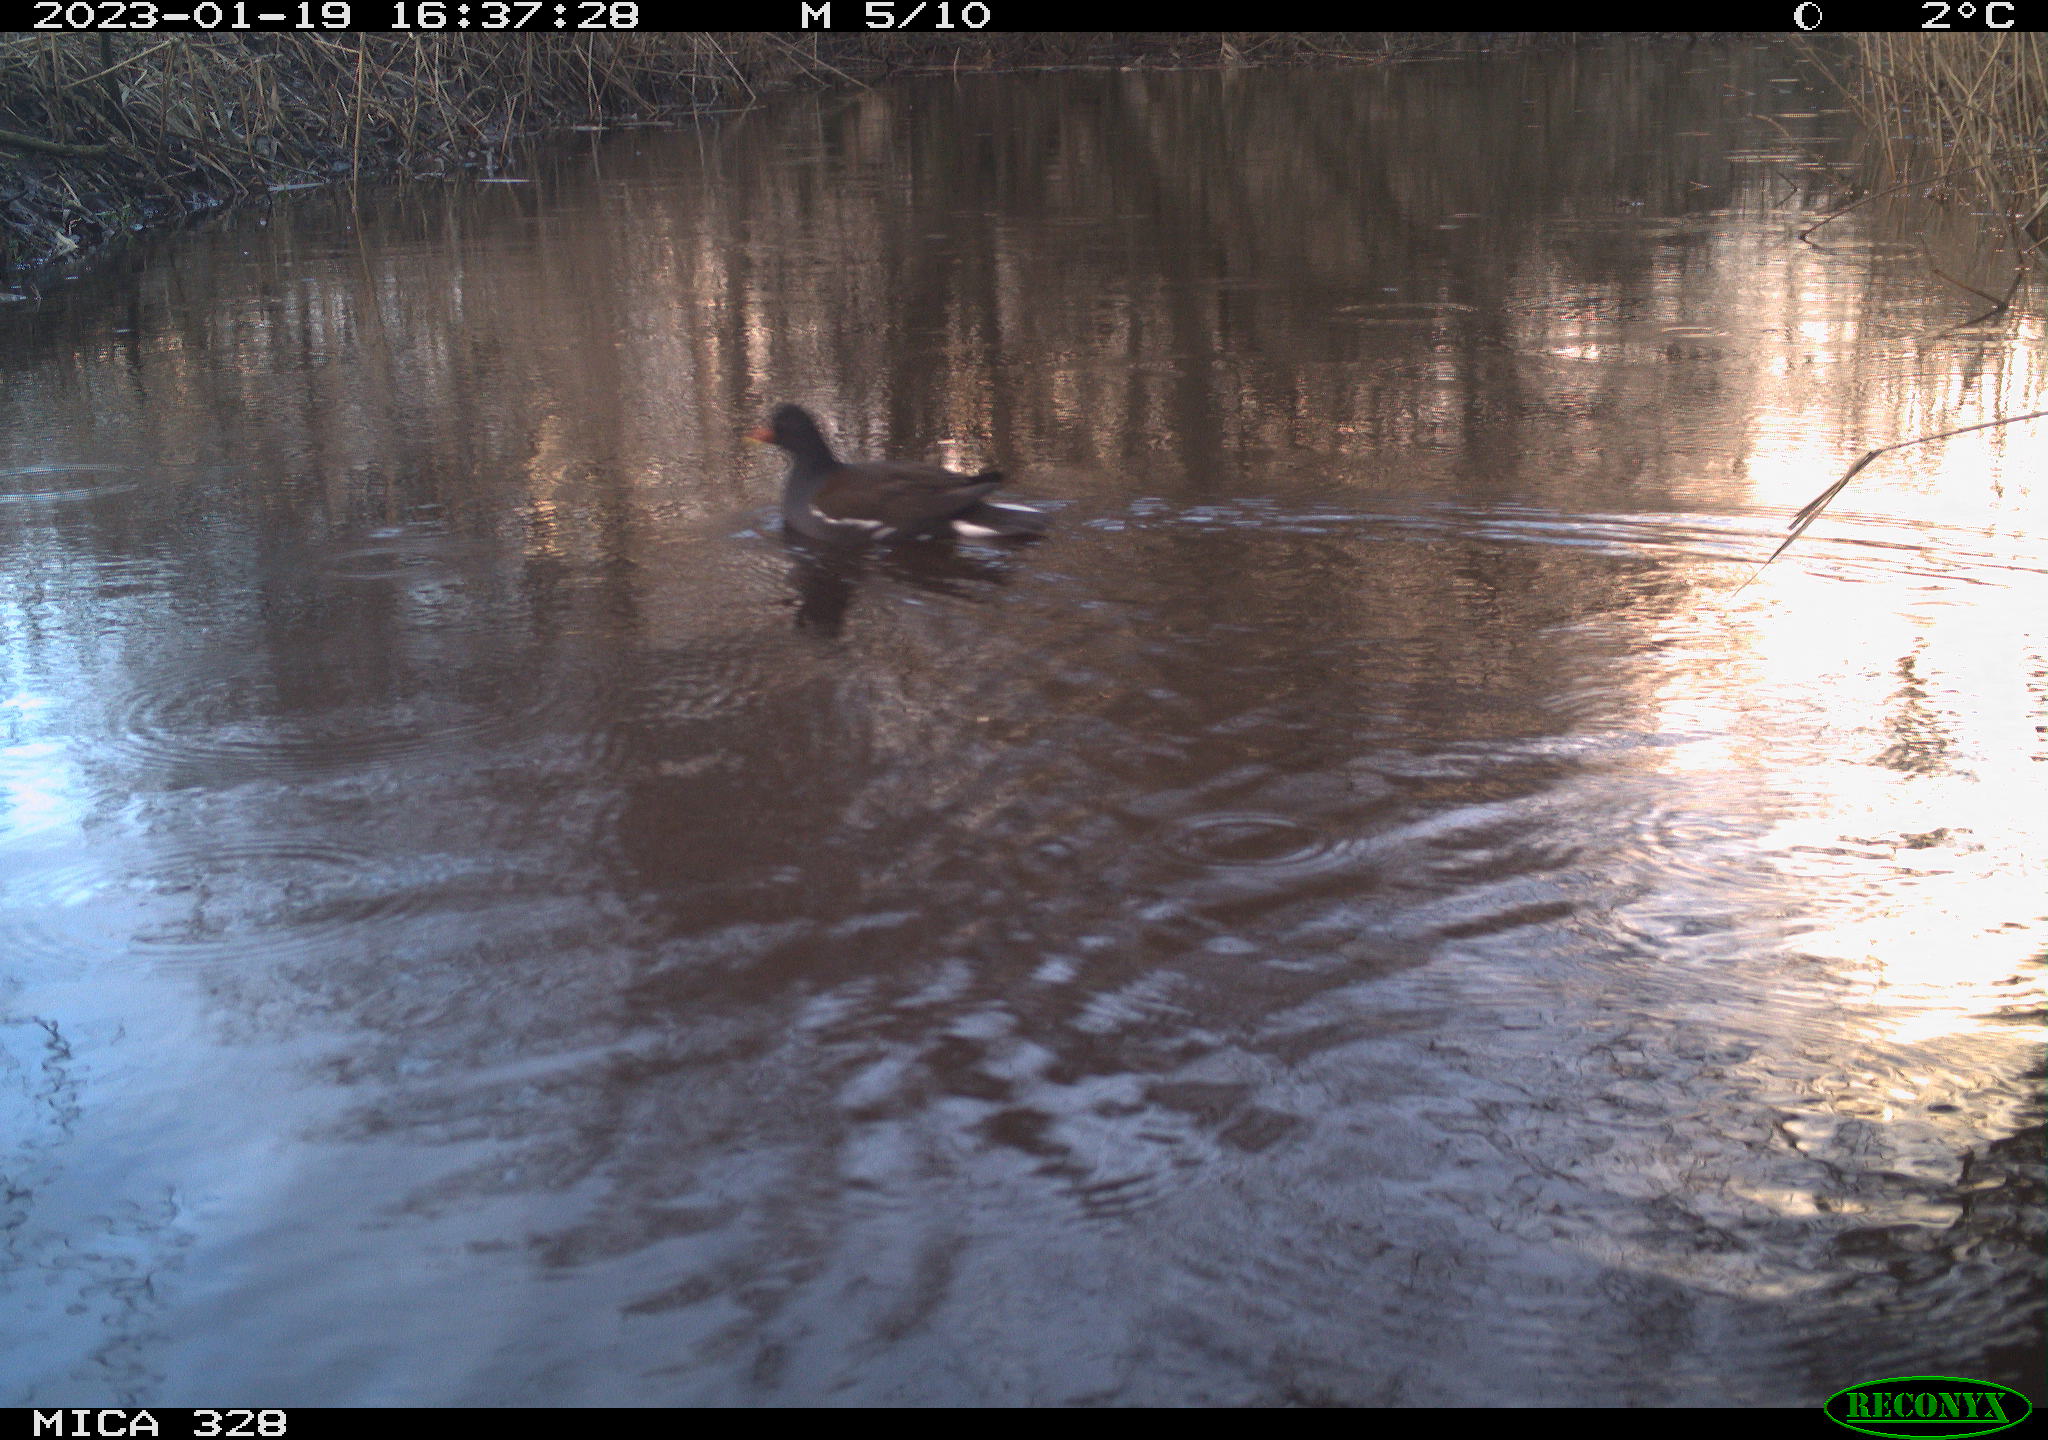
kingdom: Animalia
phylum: Chordata
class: Aves
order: Gruiformes
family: Rallidae
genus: Gallinula
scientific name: Gallinula chloropus
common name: Common moorhen
